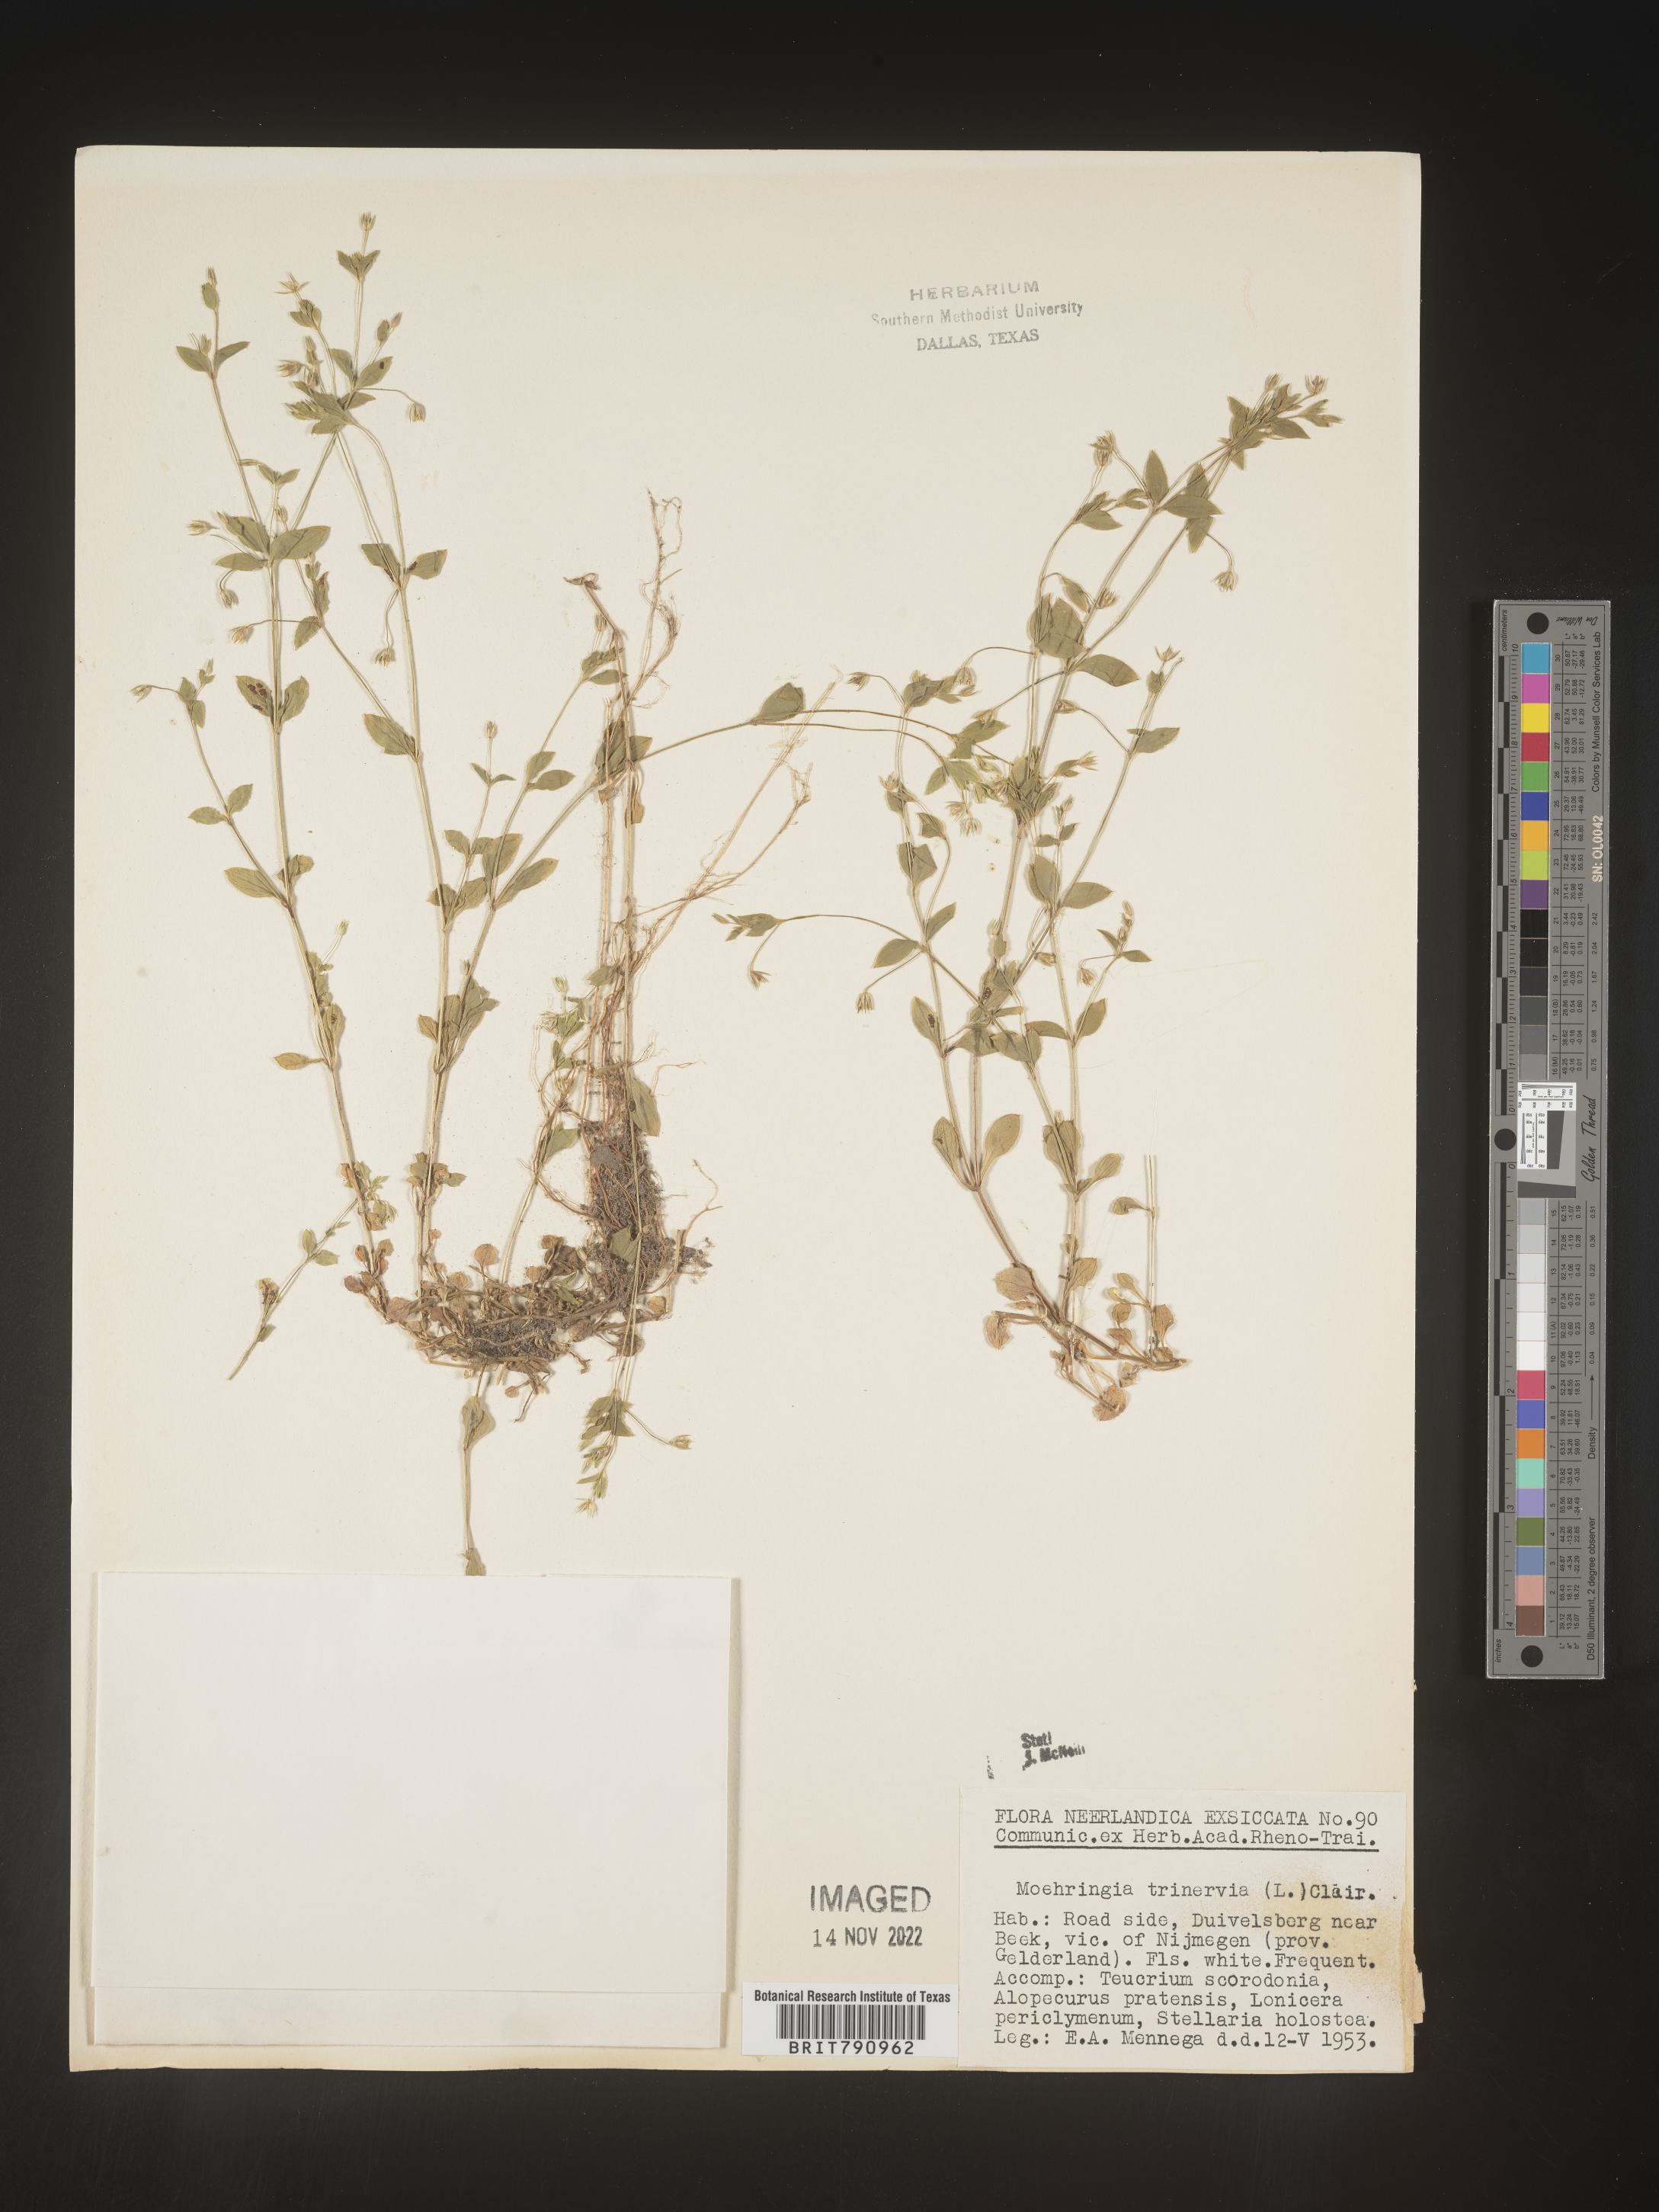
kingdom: Plantae
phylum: Tracheophyta
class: Magnoliopsida
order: Caryophyllales
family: Caryophyllaceae
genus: Moehringia
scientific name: Moehringia
